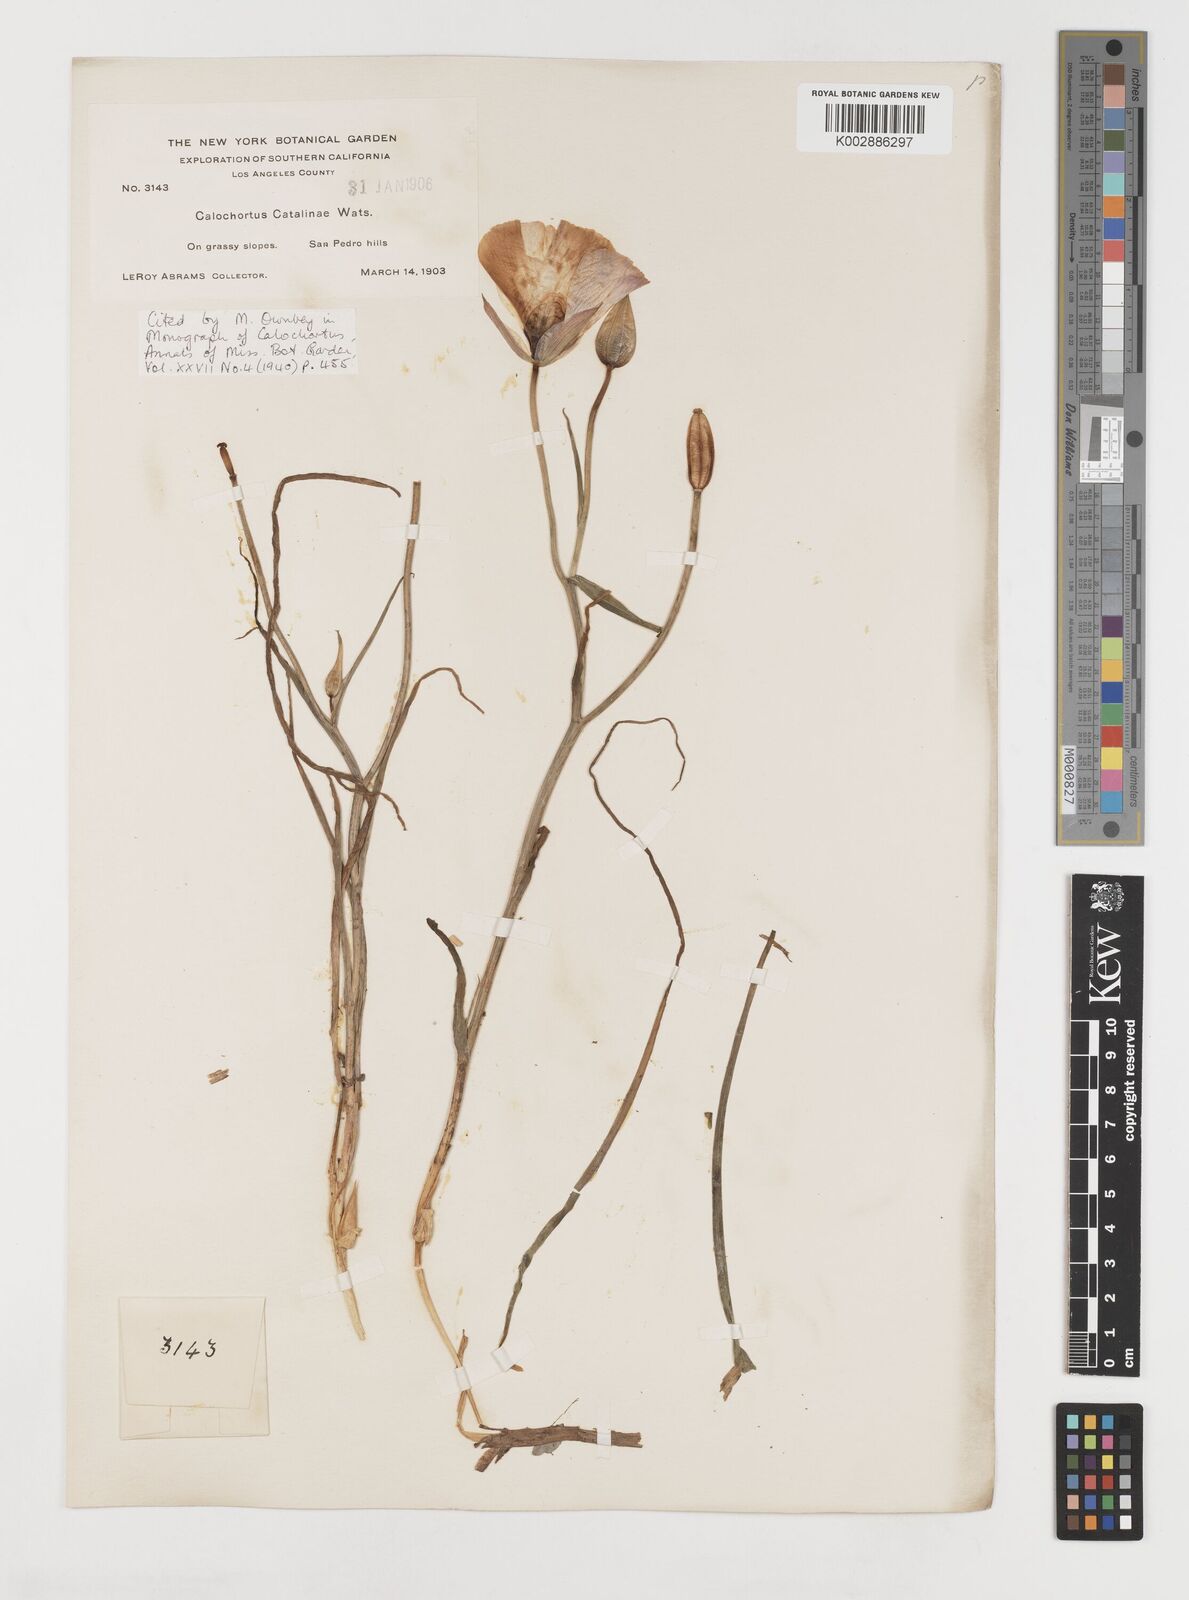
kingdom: Plantae
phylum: Tracheophyta
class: Liliopsida
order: Liliales
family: Liliaceae
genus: Calochortus
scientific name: Calochortus catalinae
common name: Catalina mariposa-lily
